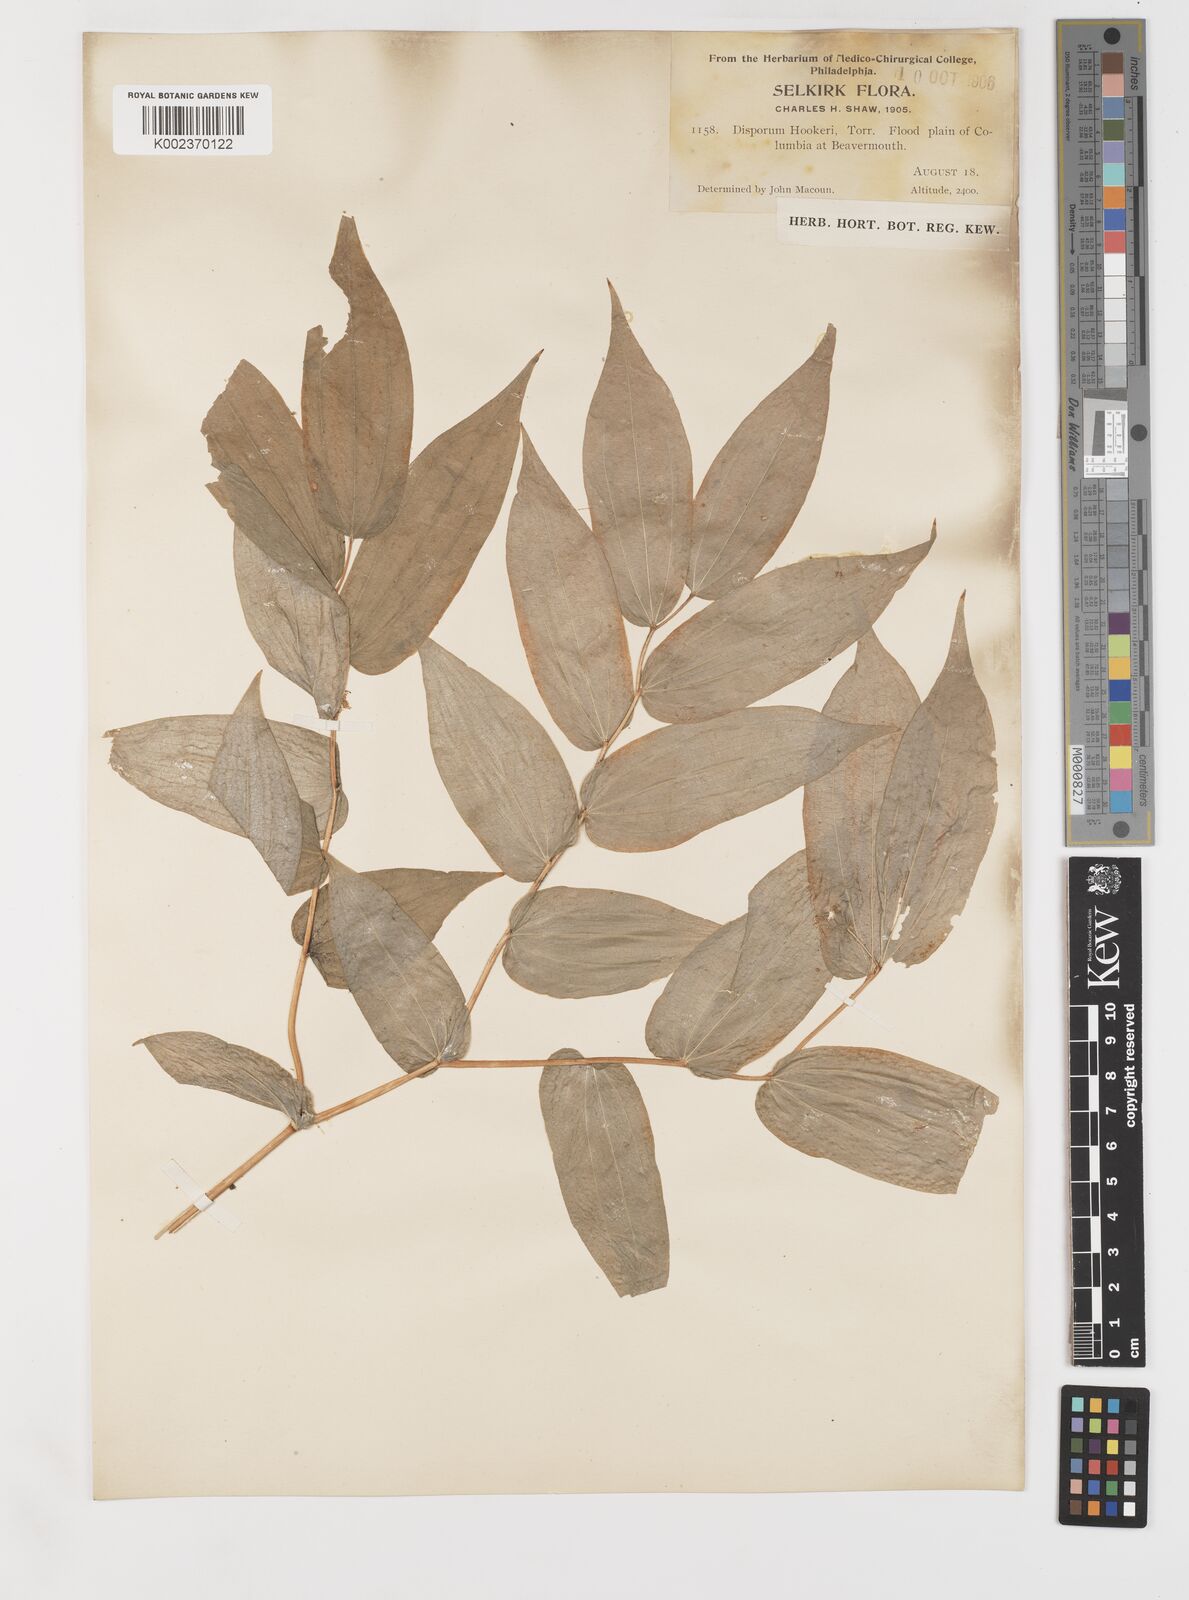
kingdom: Plantae
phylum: Tracheophyta
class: Liliopsida
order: Liliales
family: Liliaceae
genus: Prosartes
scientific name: Prosartes hookeri
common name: Fairy-bells
